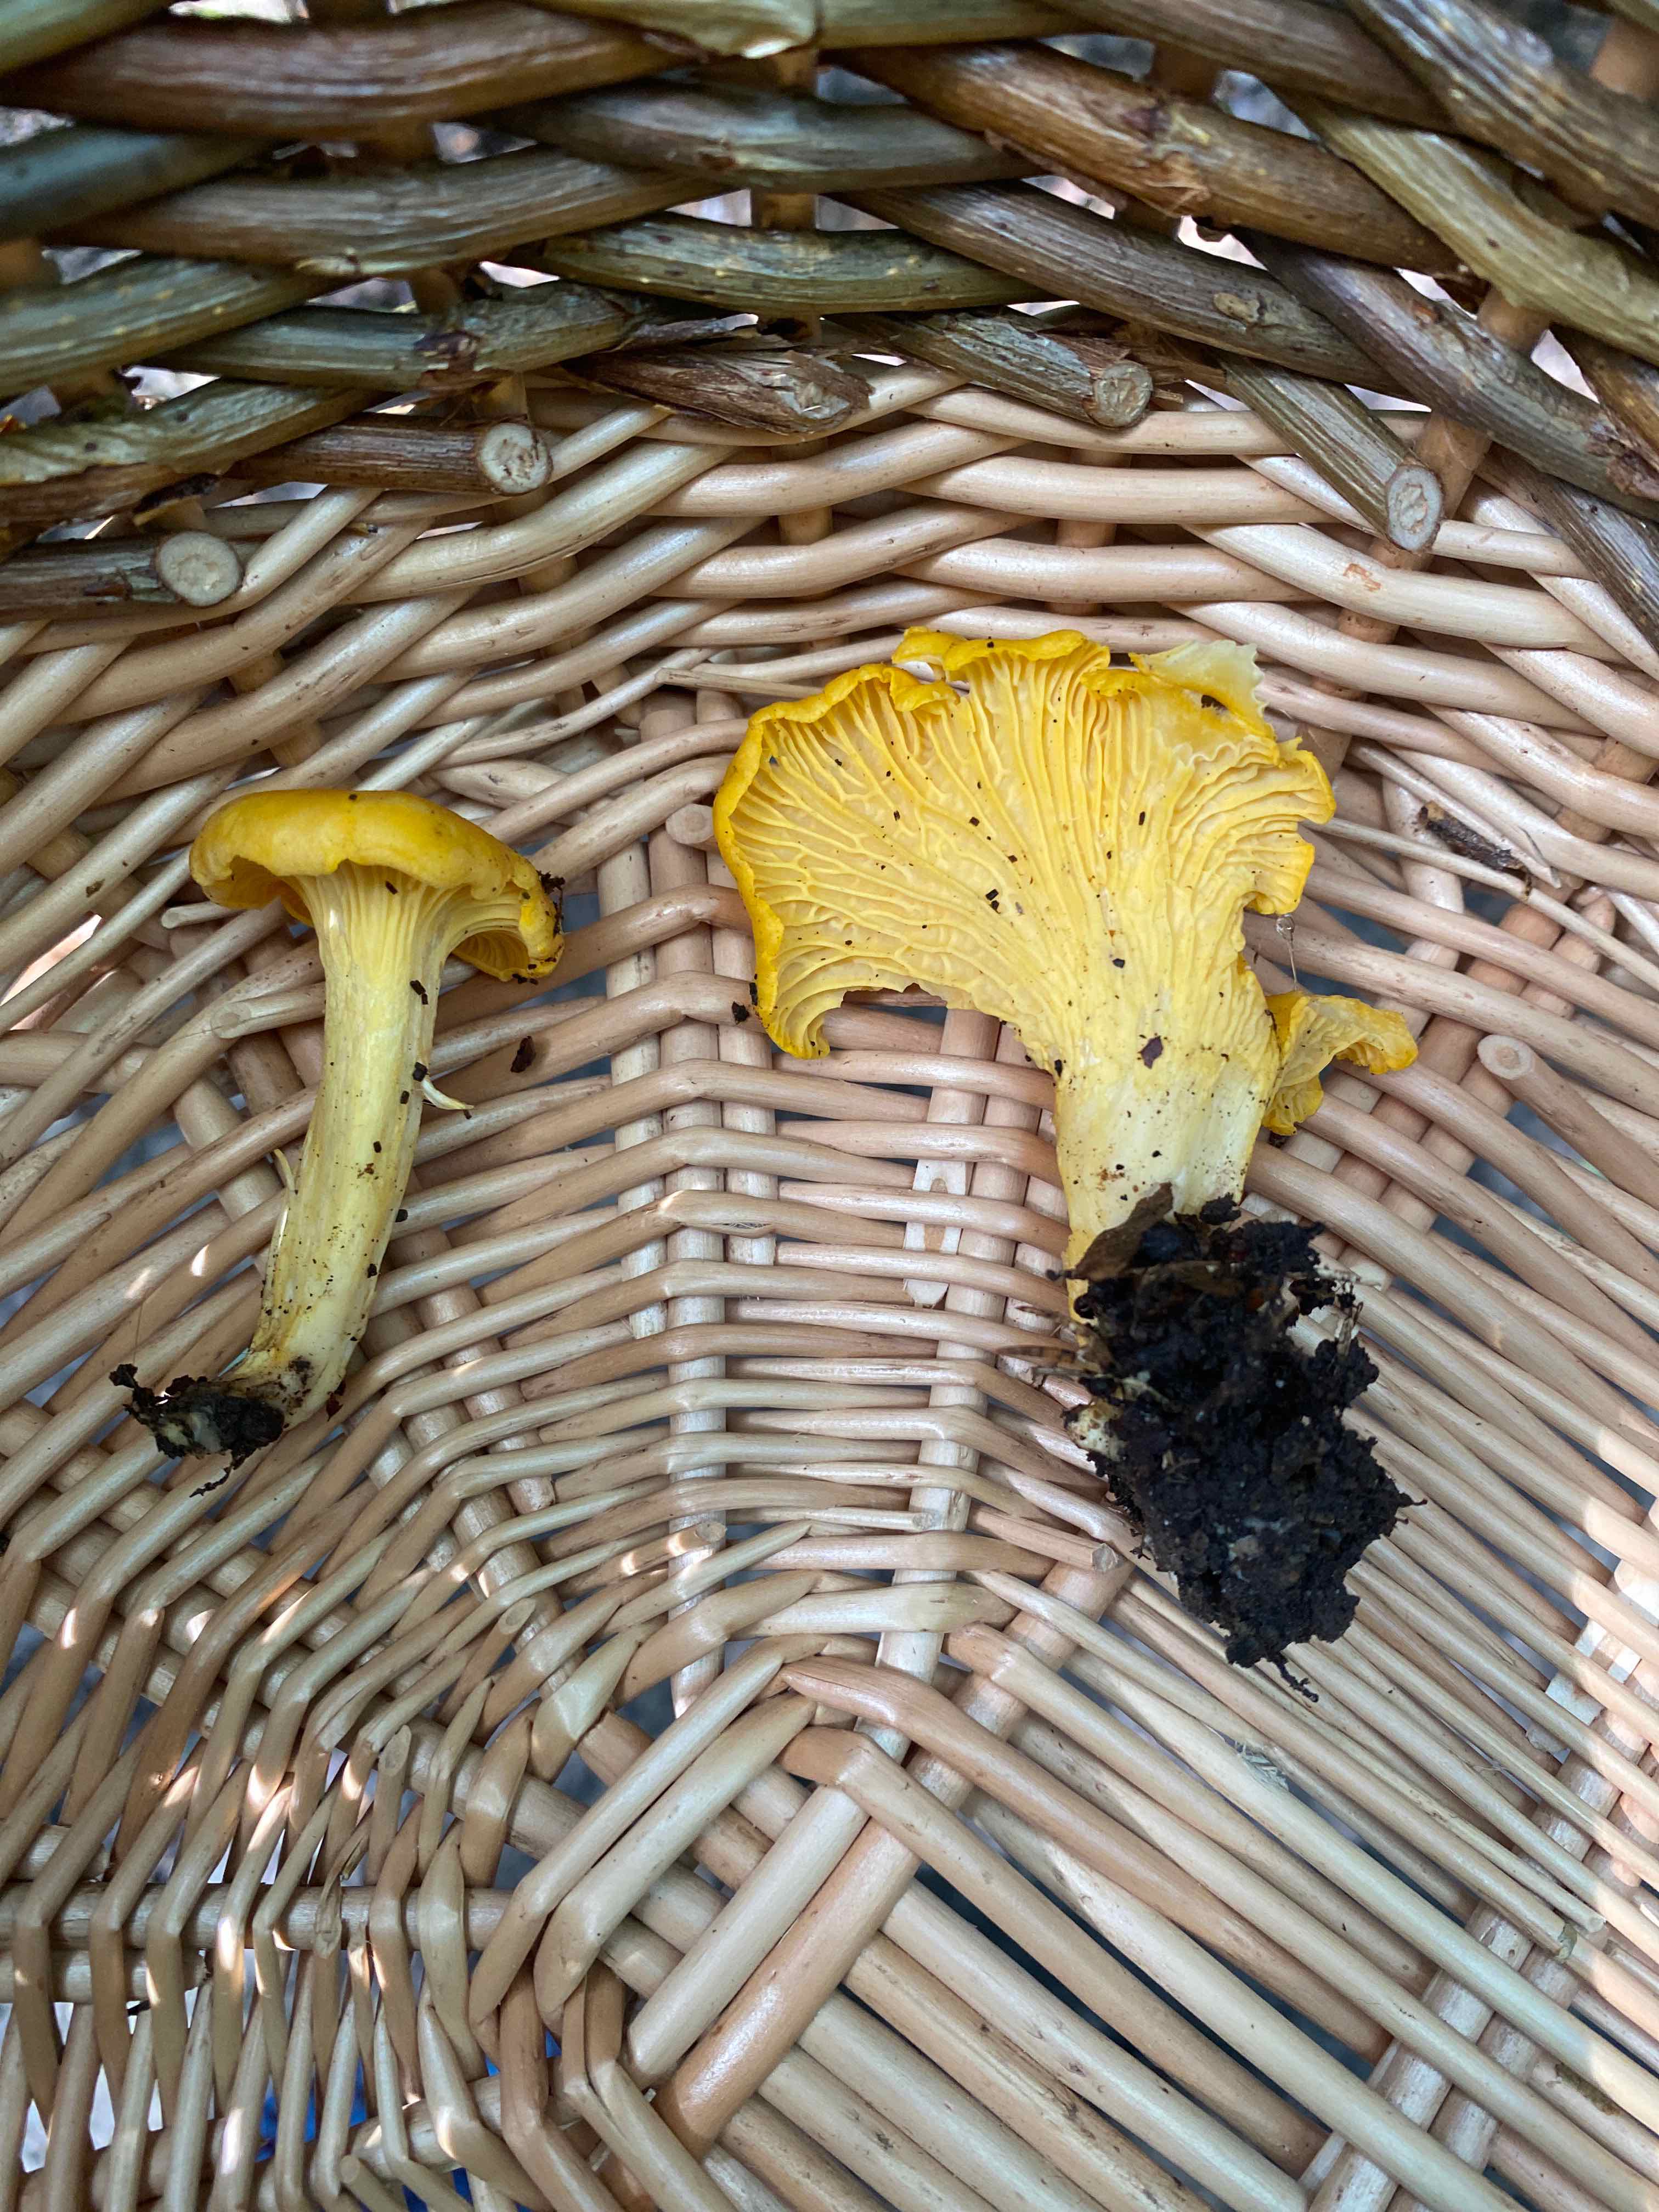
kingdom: Fungi
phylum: Basidiomycota
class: Agaricomycetes
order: Cantharellales
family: Hydnaceae
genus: Cantharellus
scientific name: Cantharellus cibarius
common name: almindelig kantarel
